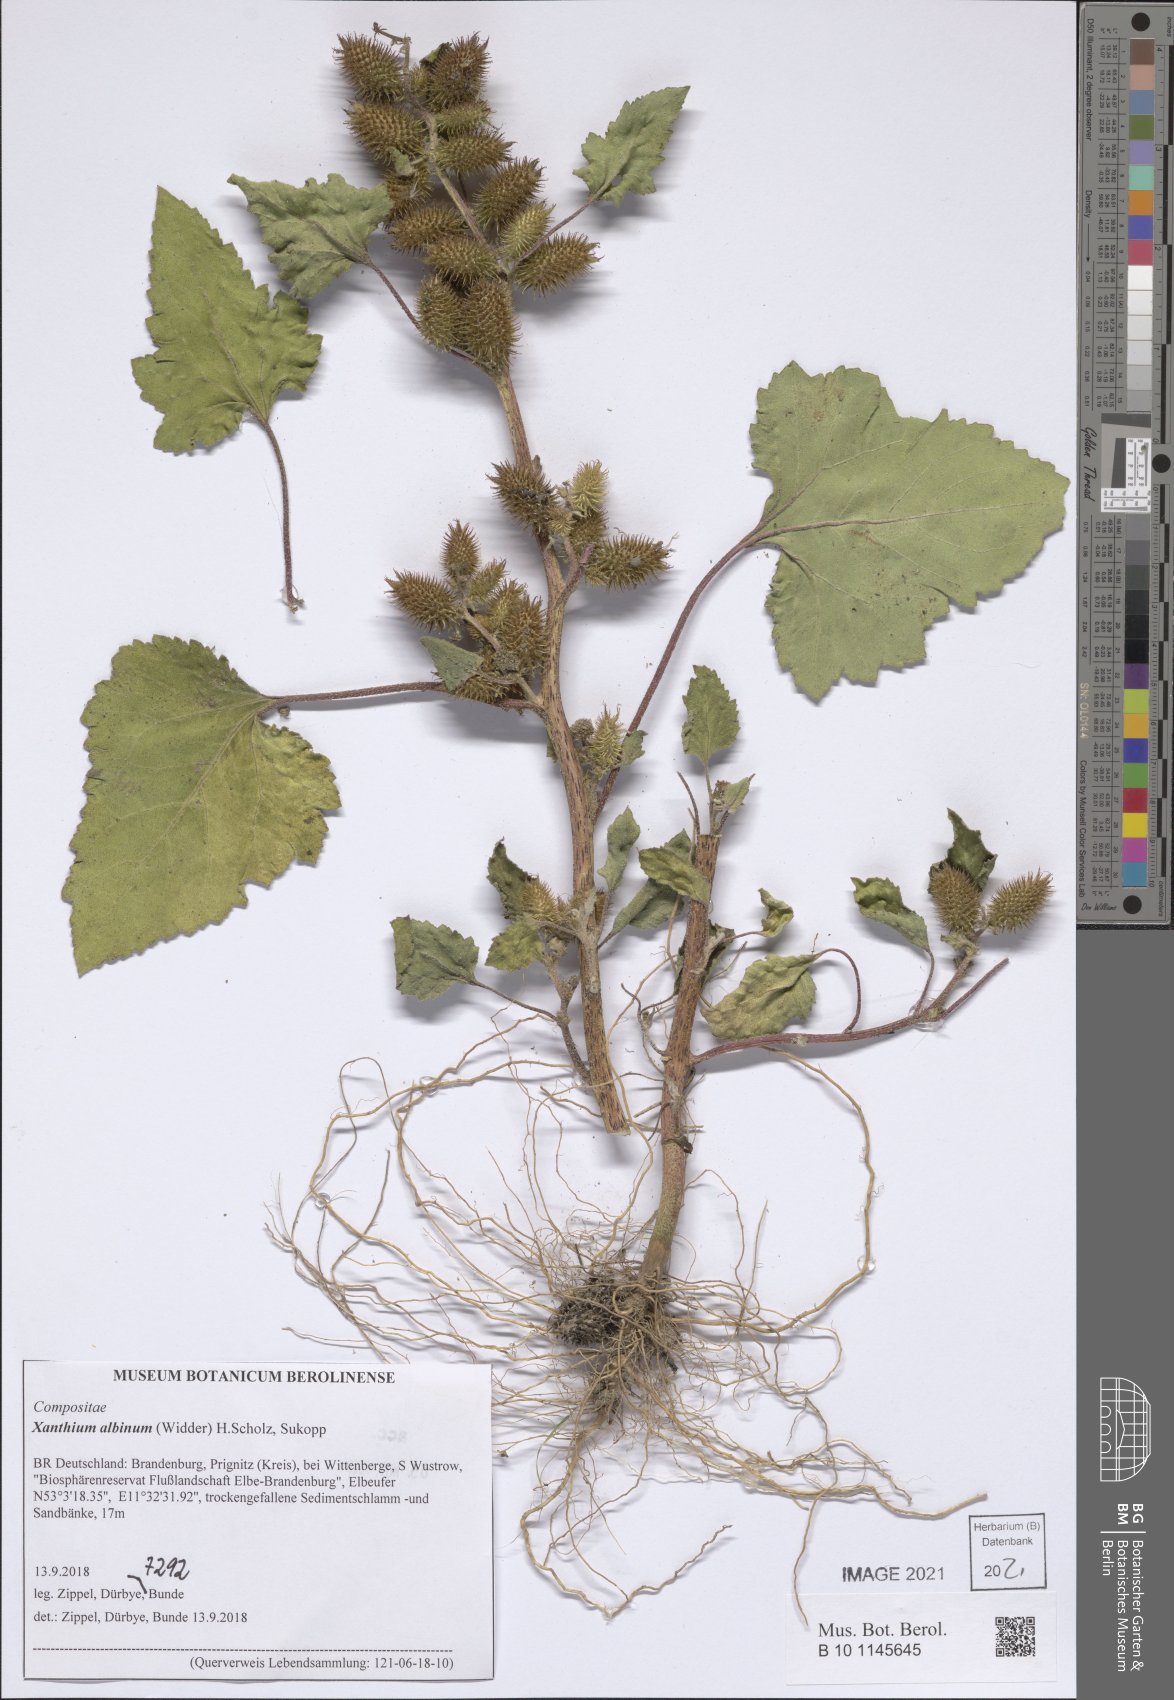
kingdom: Plantae
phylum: Tracheophyta
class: Magnoliopsida
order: Asterales
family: Asteraceae
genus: Xanthium
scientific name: Xanthium orientale
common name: Californian burr
